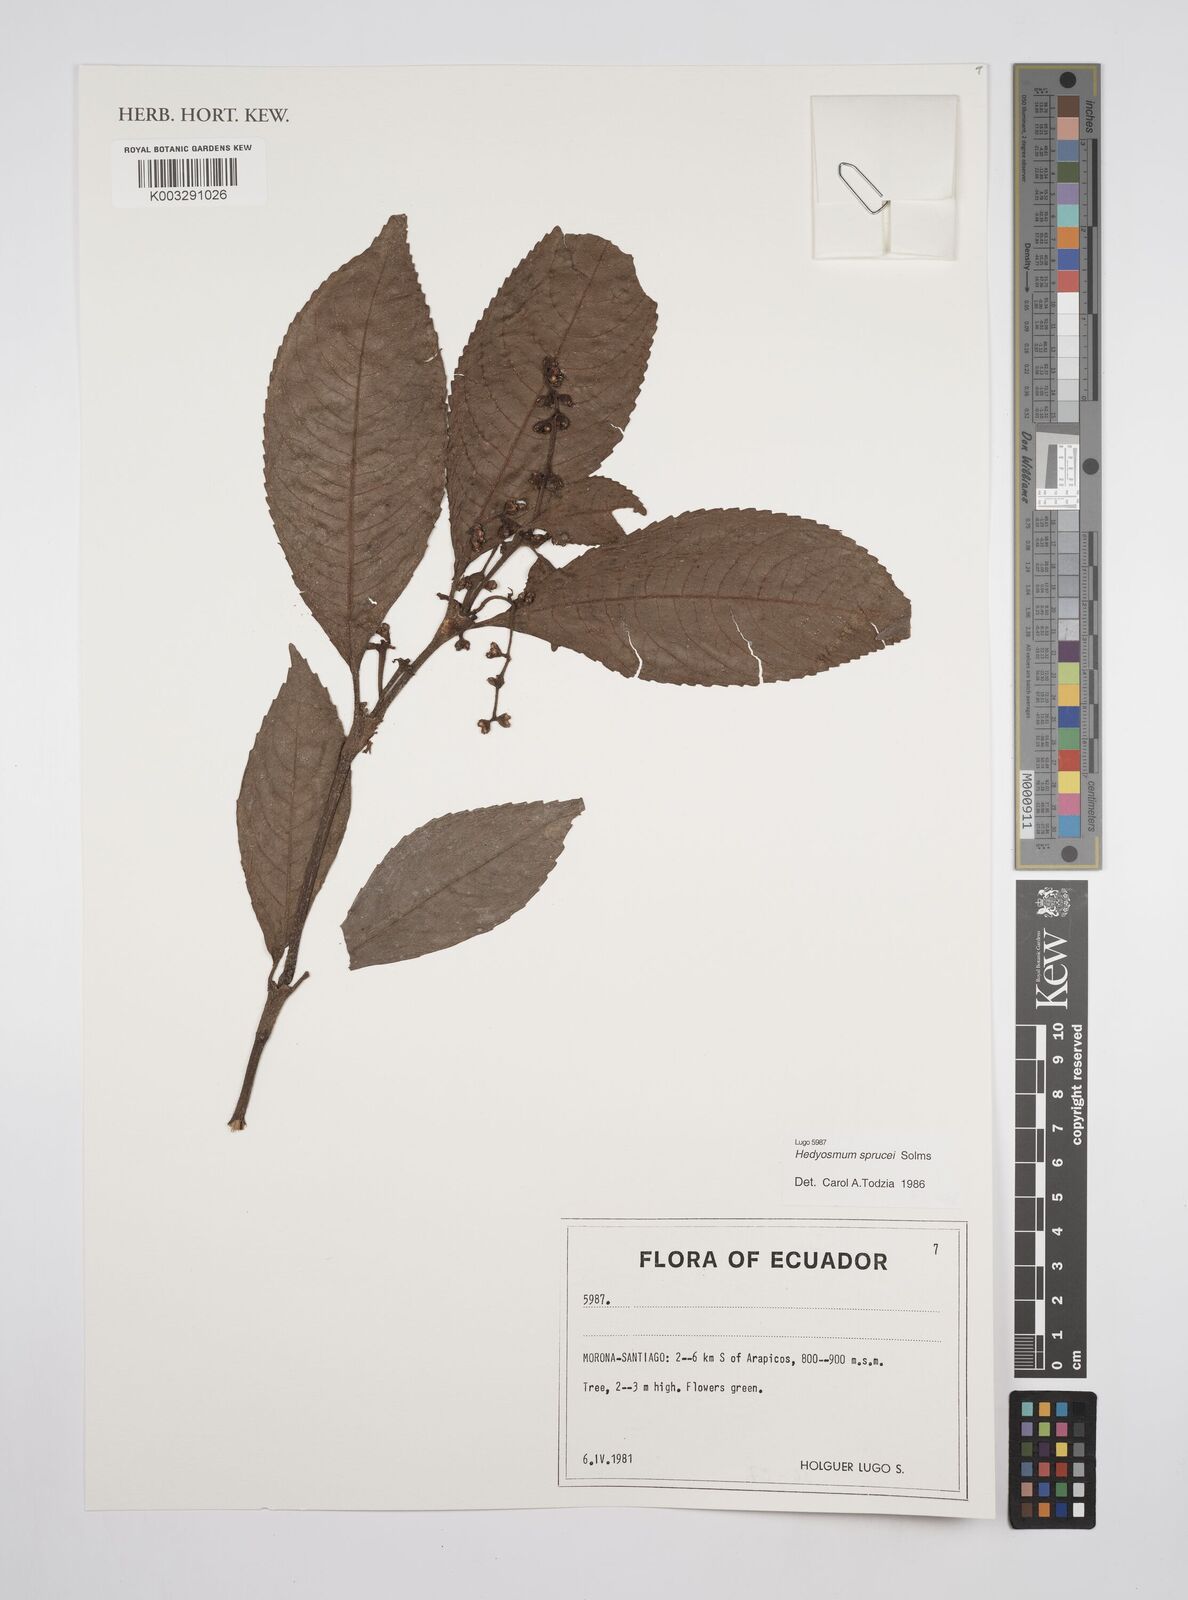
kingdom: Plantae
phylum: Tracheophyta
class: Magnoliopsida
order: Chloranthales
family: Chloranthaceae
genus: Hedyosmum
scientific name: Hedyosmum sprucei
